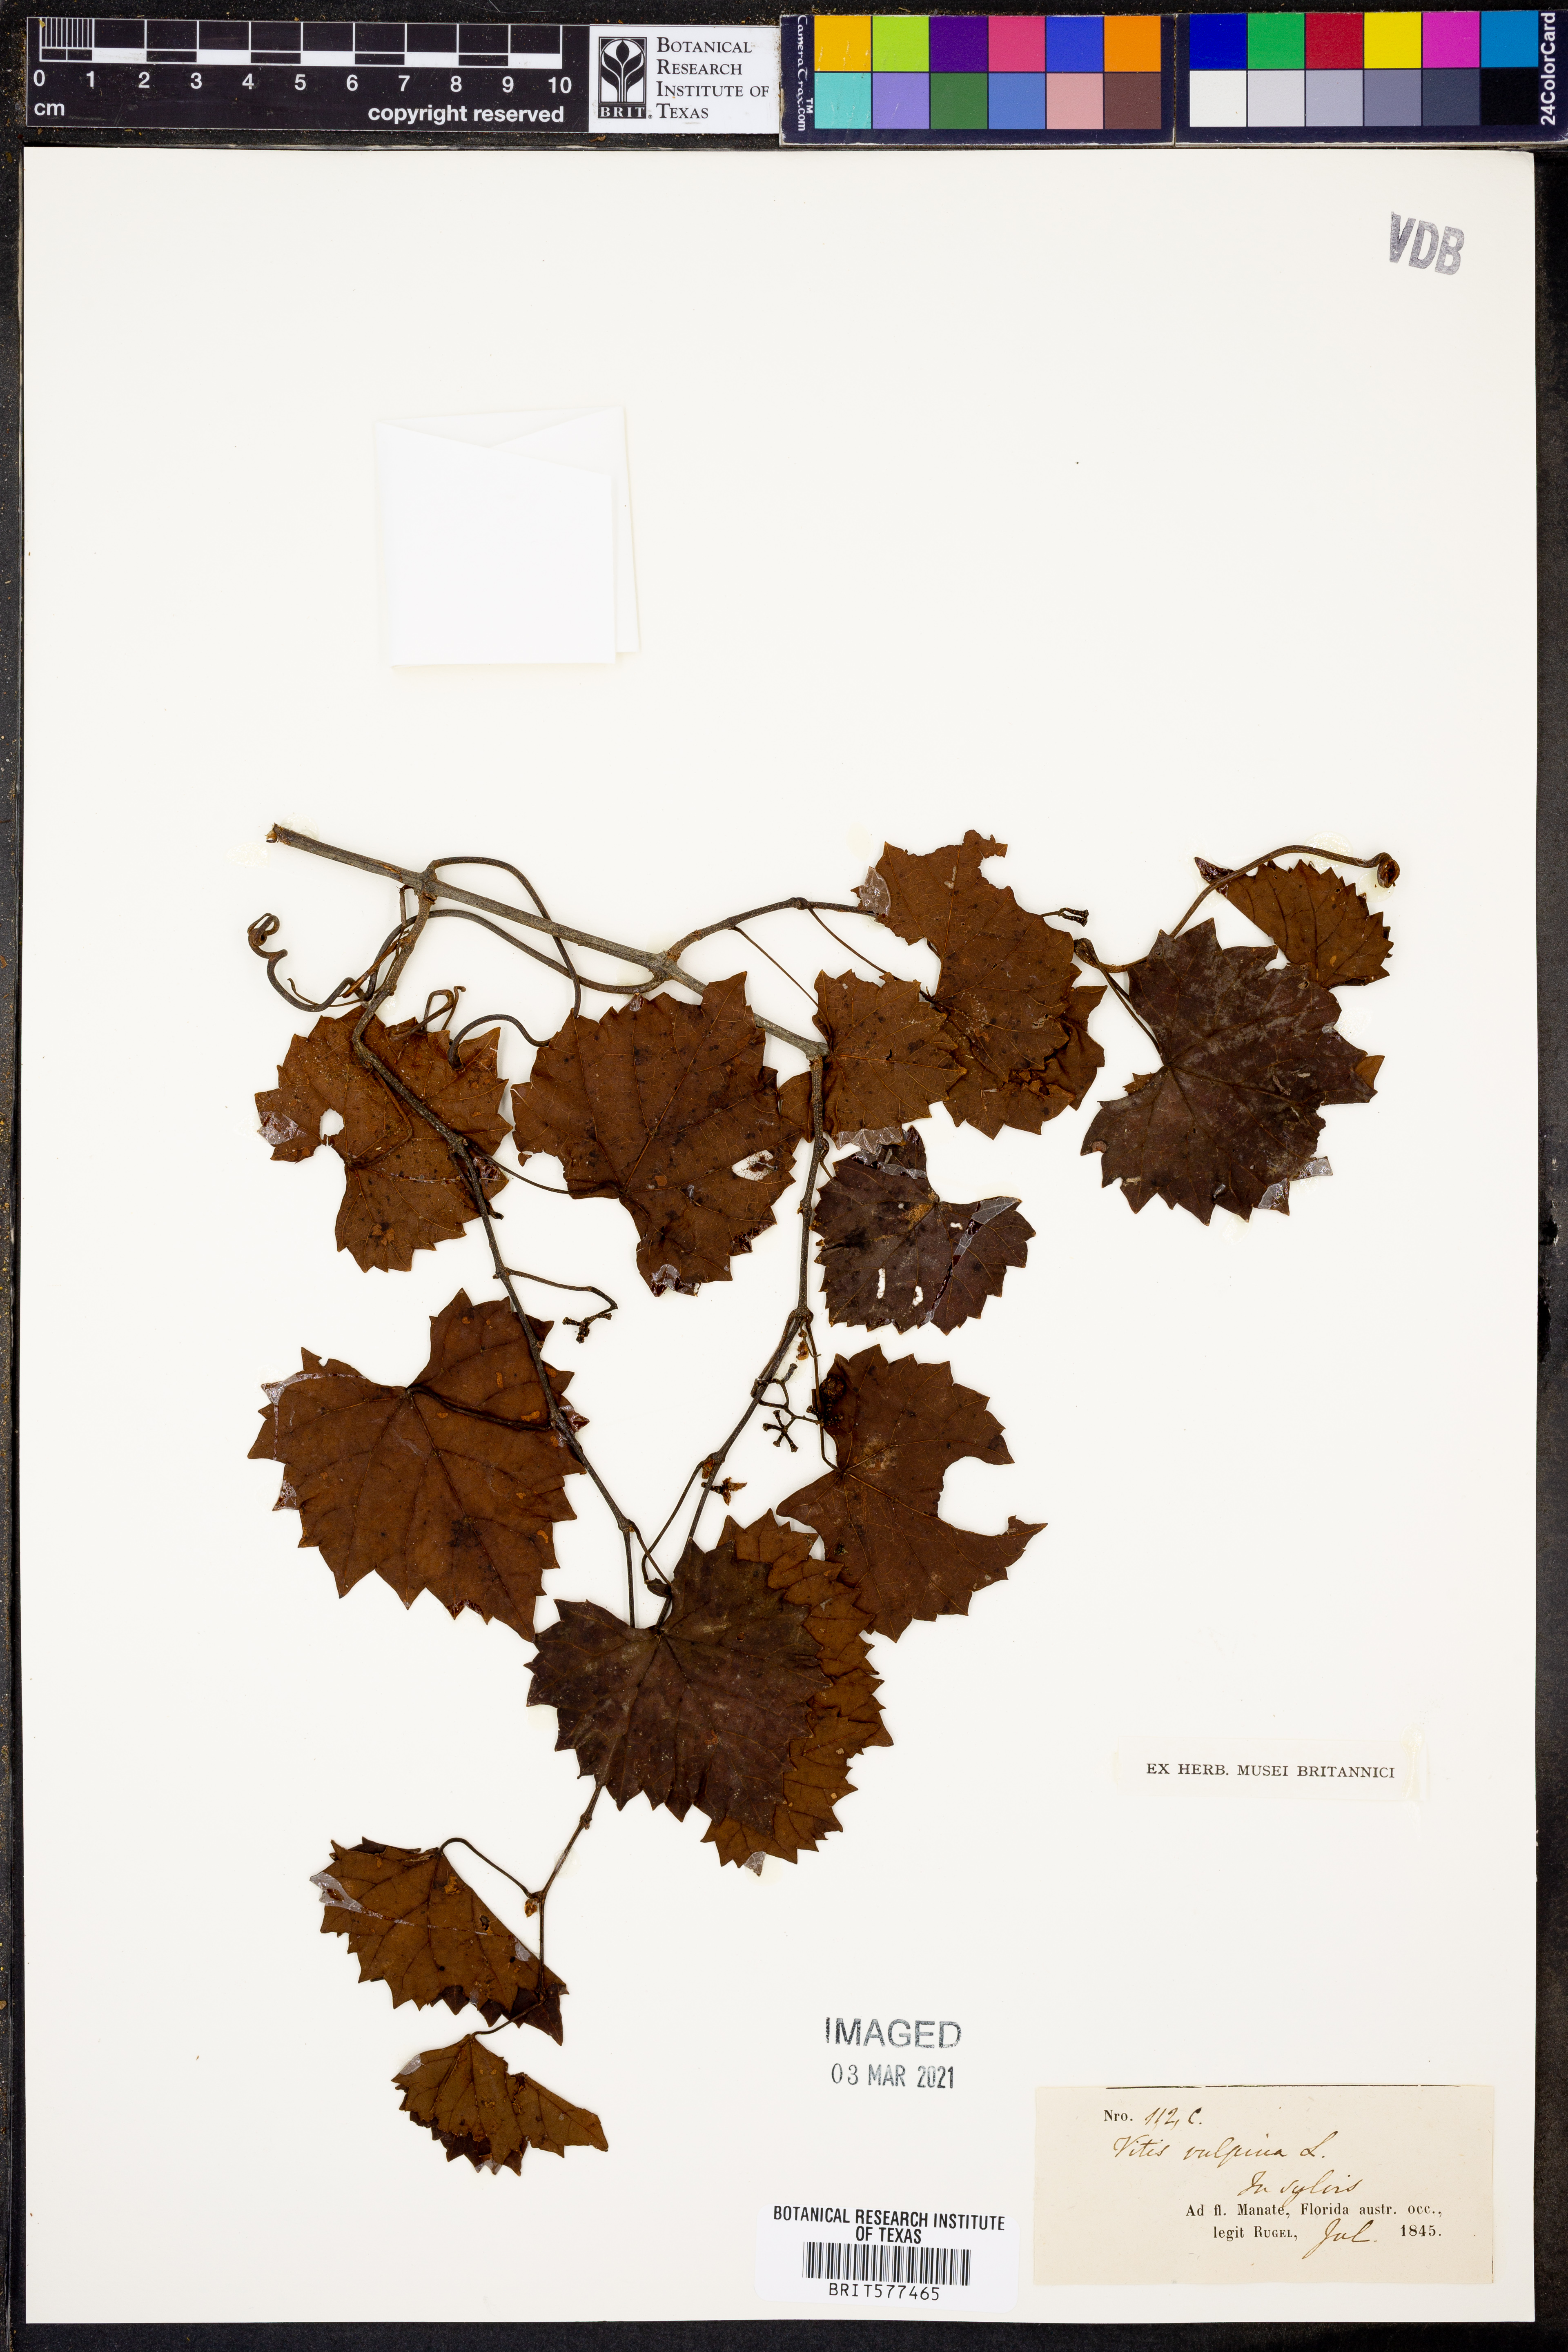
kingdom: Plantae
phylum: Tracheophyta
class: Magnoliopsida
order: Vitales
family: Vitaceae
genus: Vitis
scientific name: Vitis vulpina
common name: Frost grape
